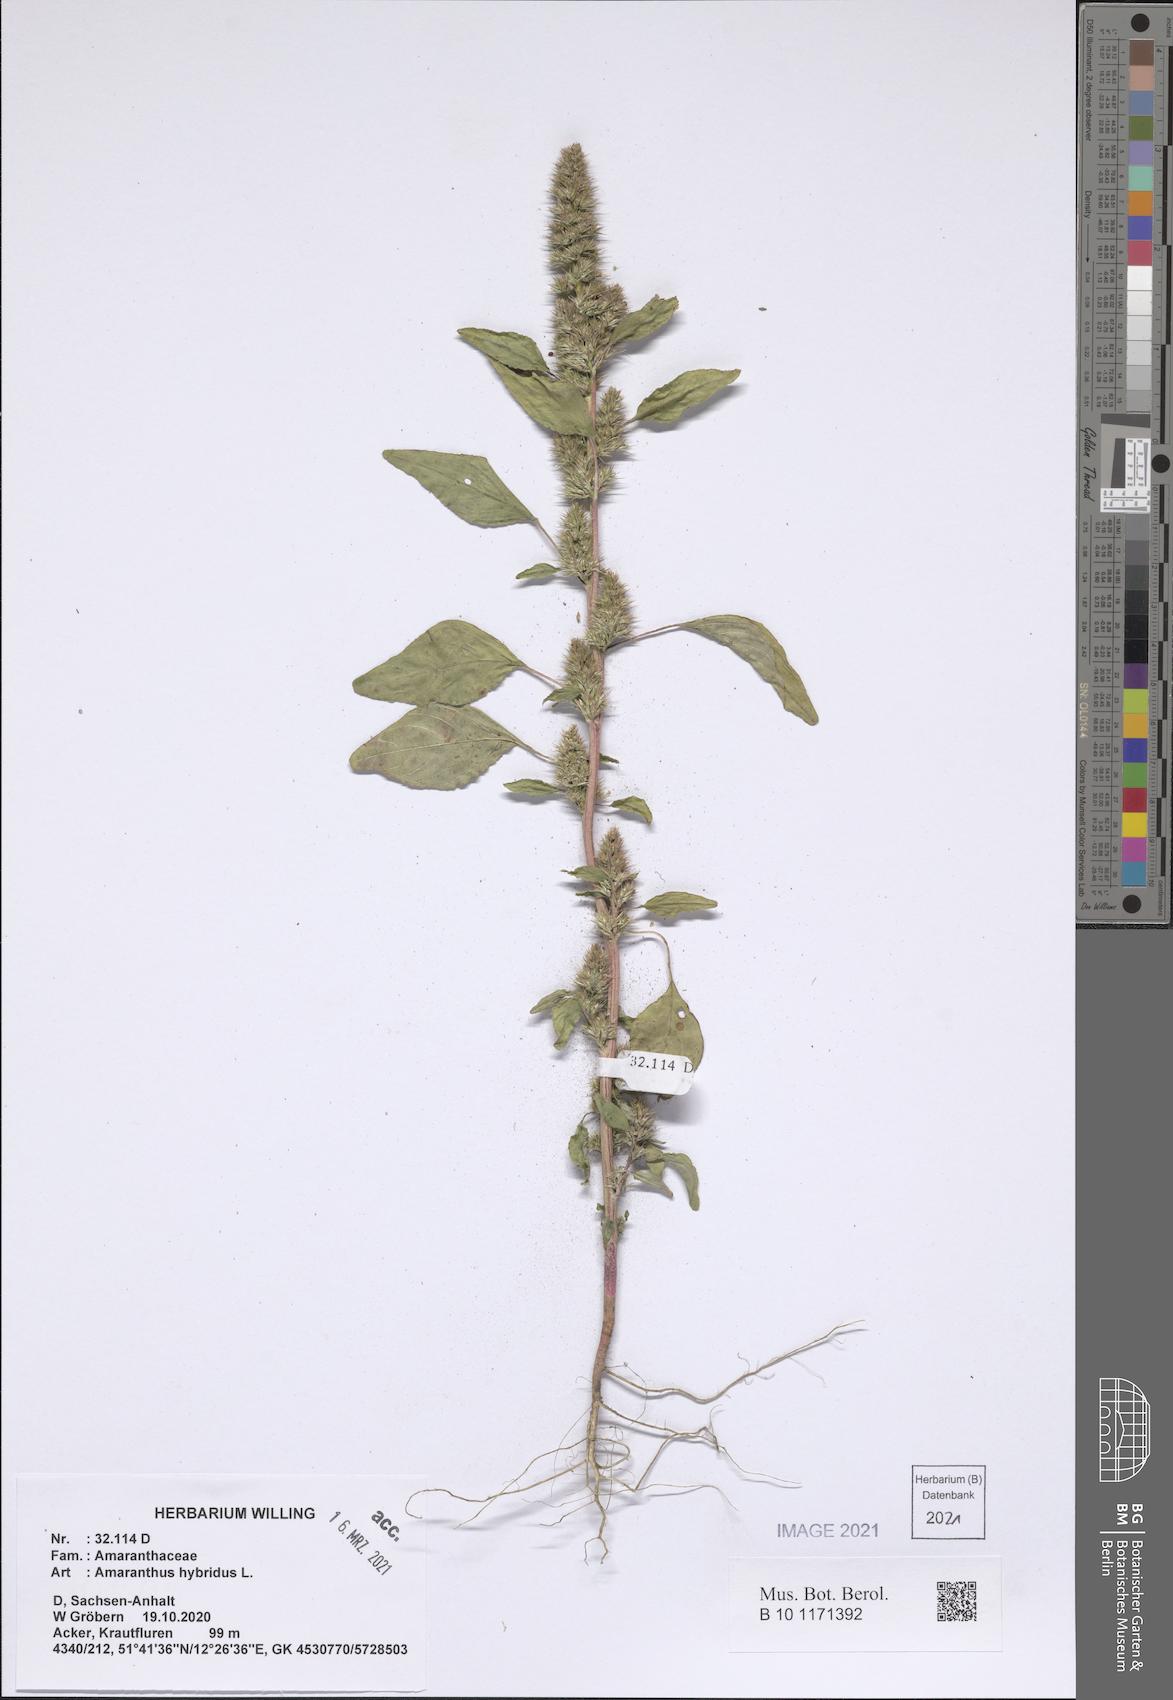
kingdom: Plantae
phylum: Tracheophyta
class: Magnoliopsida
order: Caryophyllales
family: Amaranthaceae
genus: Amaranthus
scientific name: Amaranthus hybridus
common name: Green amaranth
